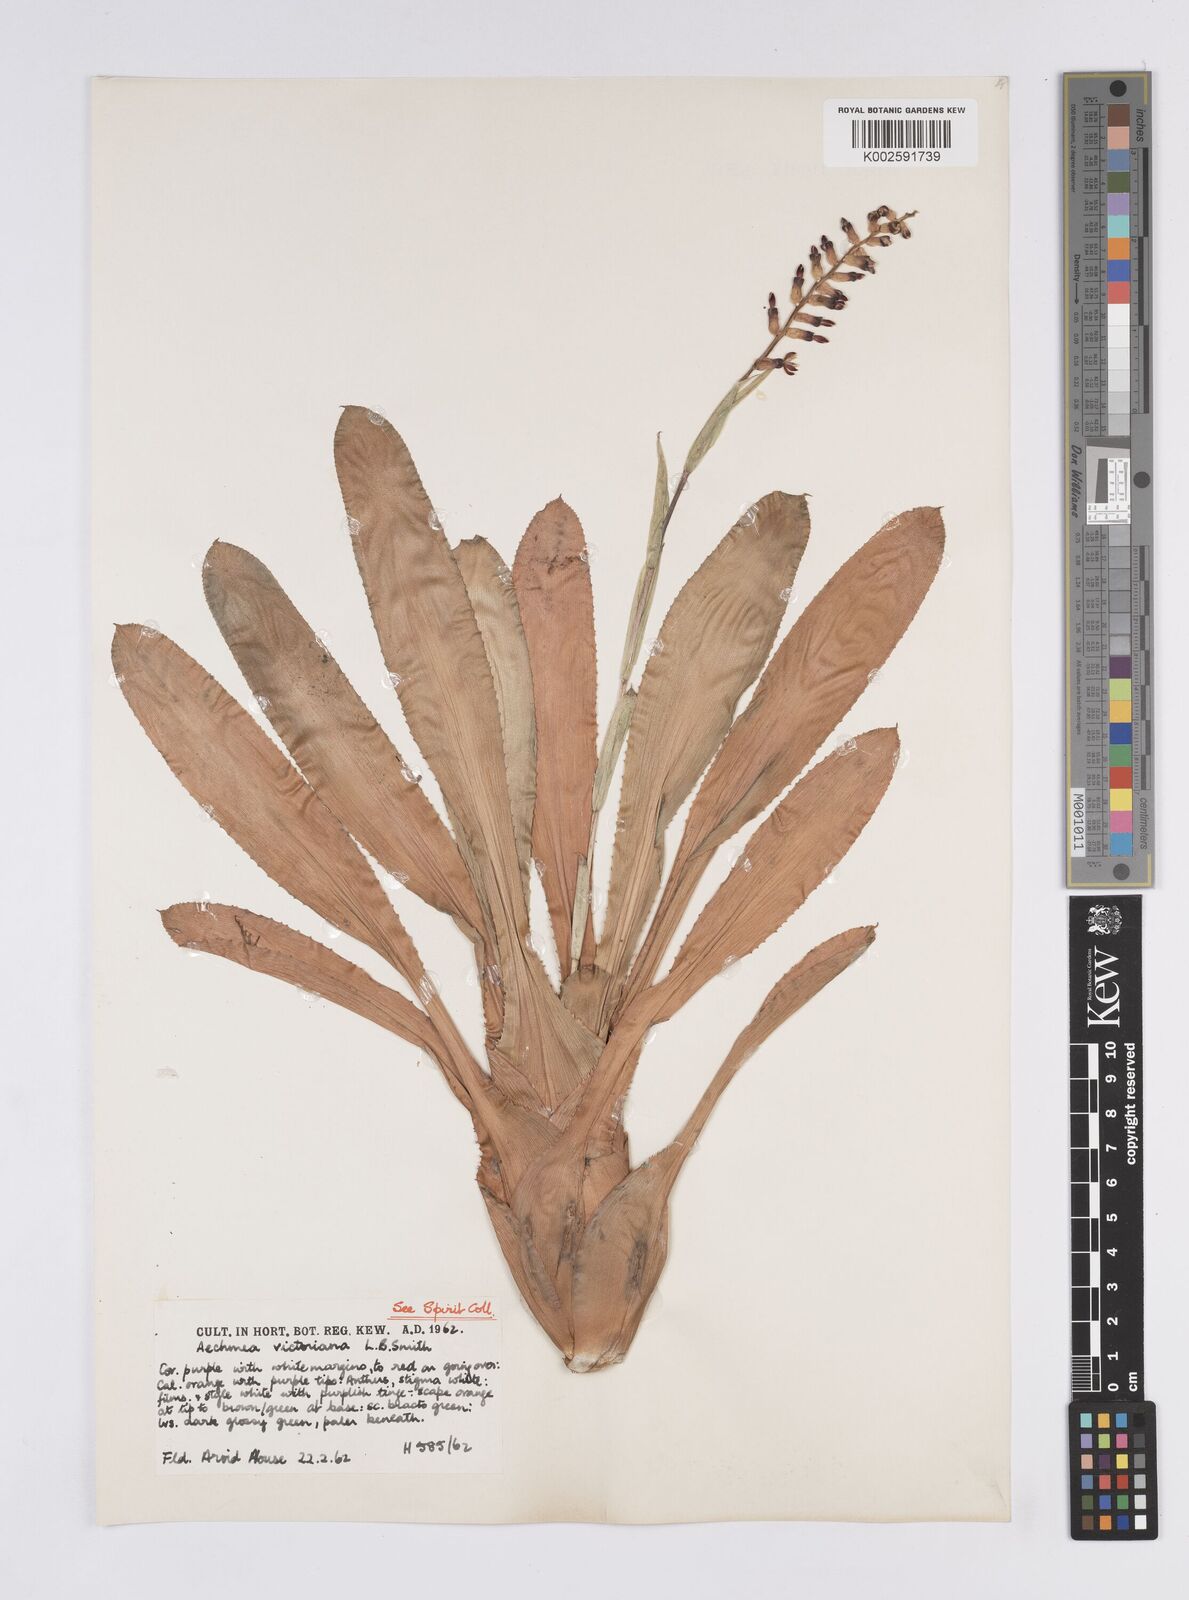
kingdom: Plantae
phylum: Tracheophyta
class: Liliopsida
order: Poales
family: Bromeliaceae
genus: Aechmea
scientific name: Aechmea victoriana
